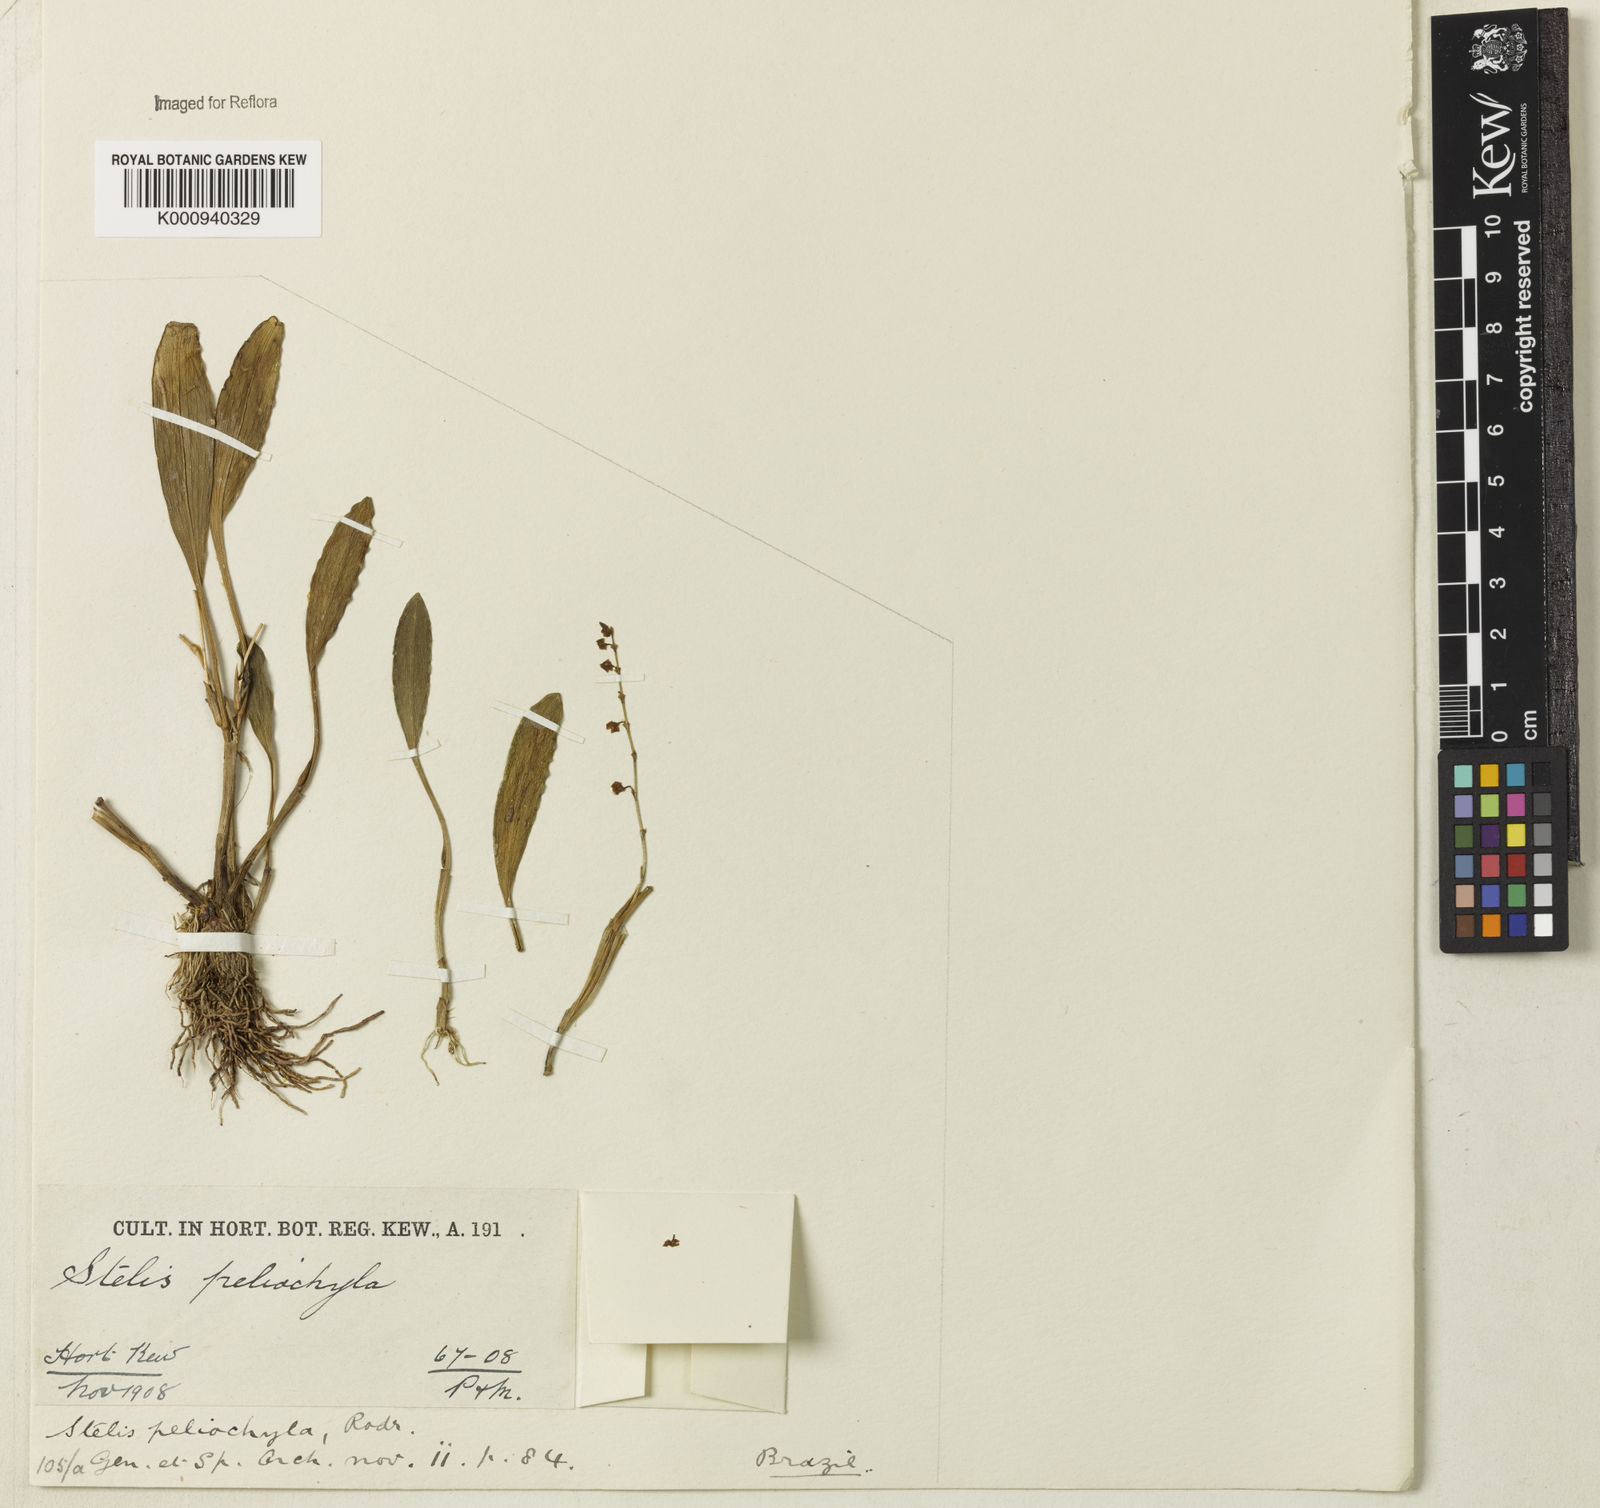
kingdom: Plantae
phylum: Tracheophyta
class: Liliopsida
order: Asparagales
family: Orchidaceae
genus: Stelis
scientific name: Stelis peliochyla
